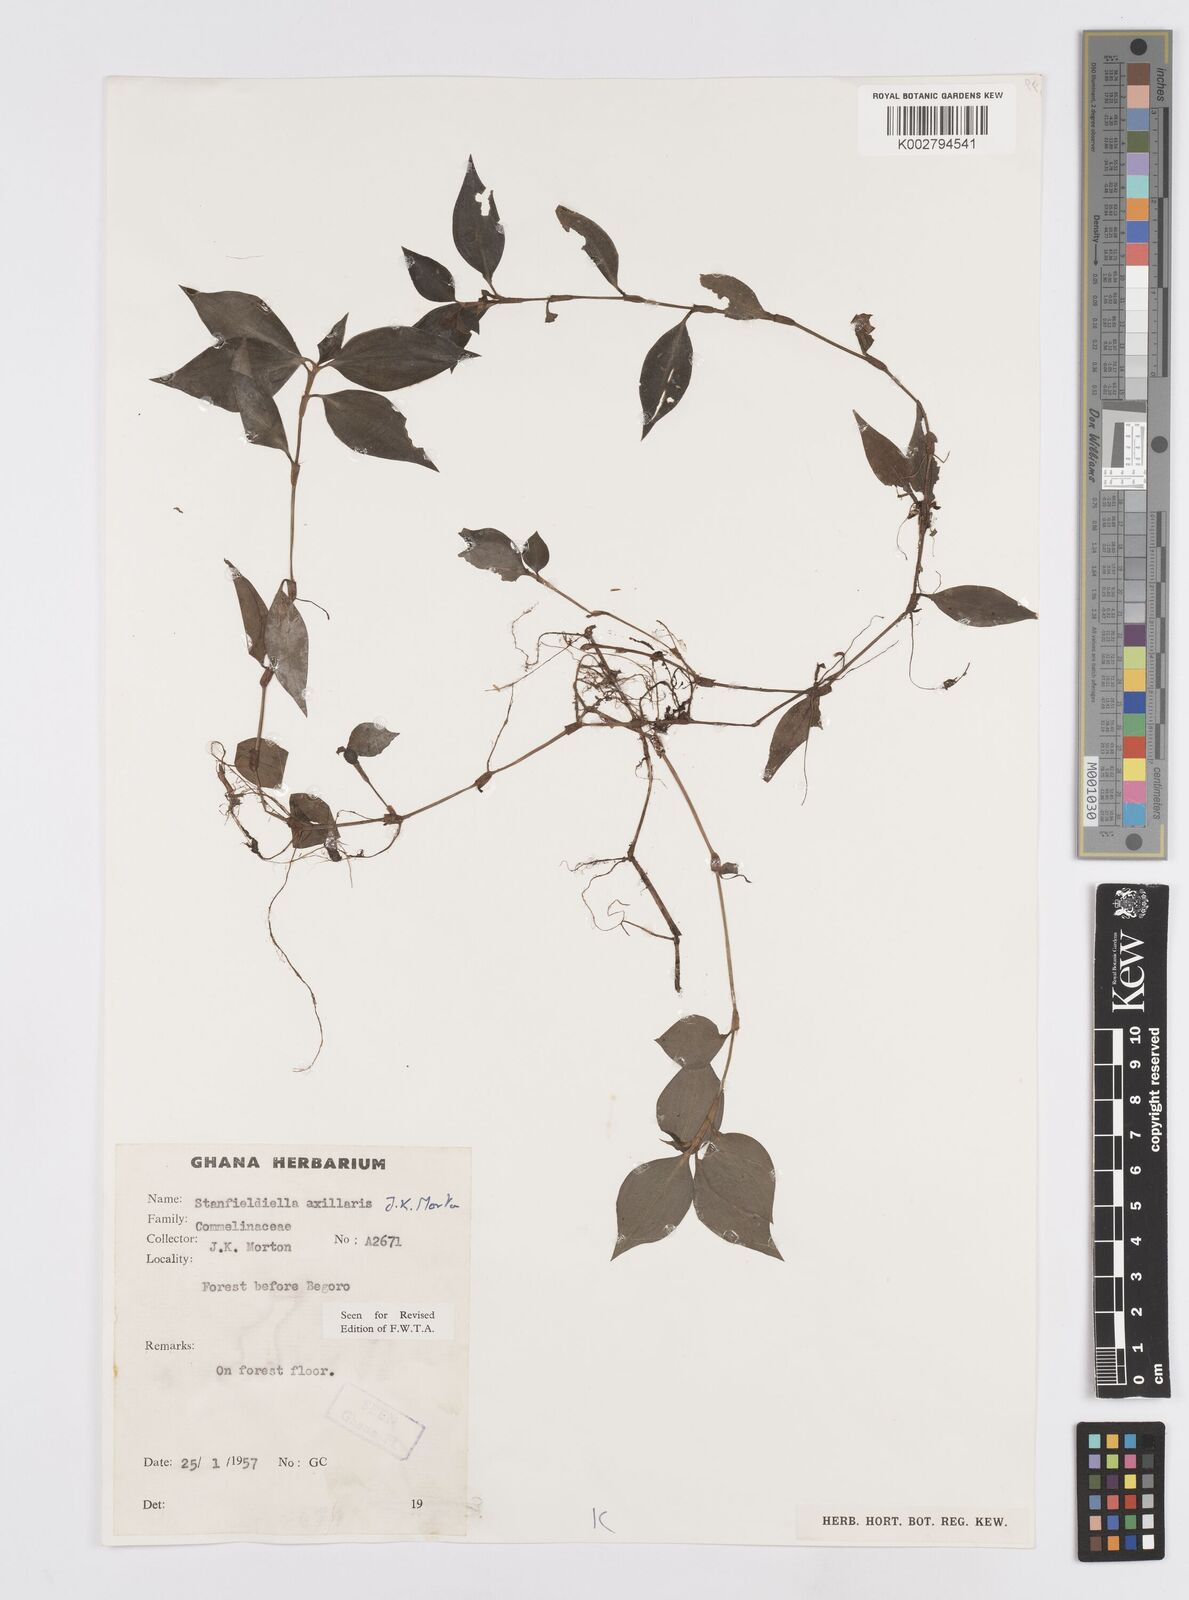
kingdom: Plantae
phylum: Tracheophyta
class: Liliopsida
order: Commelinales
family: Commelinaceae
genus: Stanfieldiella
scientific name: Stanfieldiella axillaris
